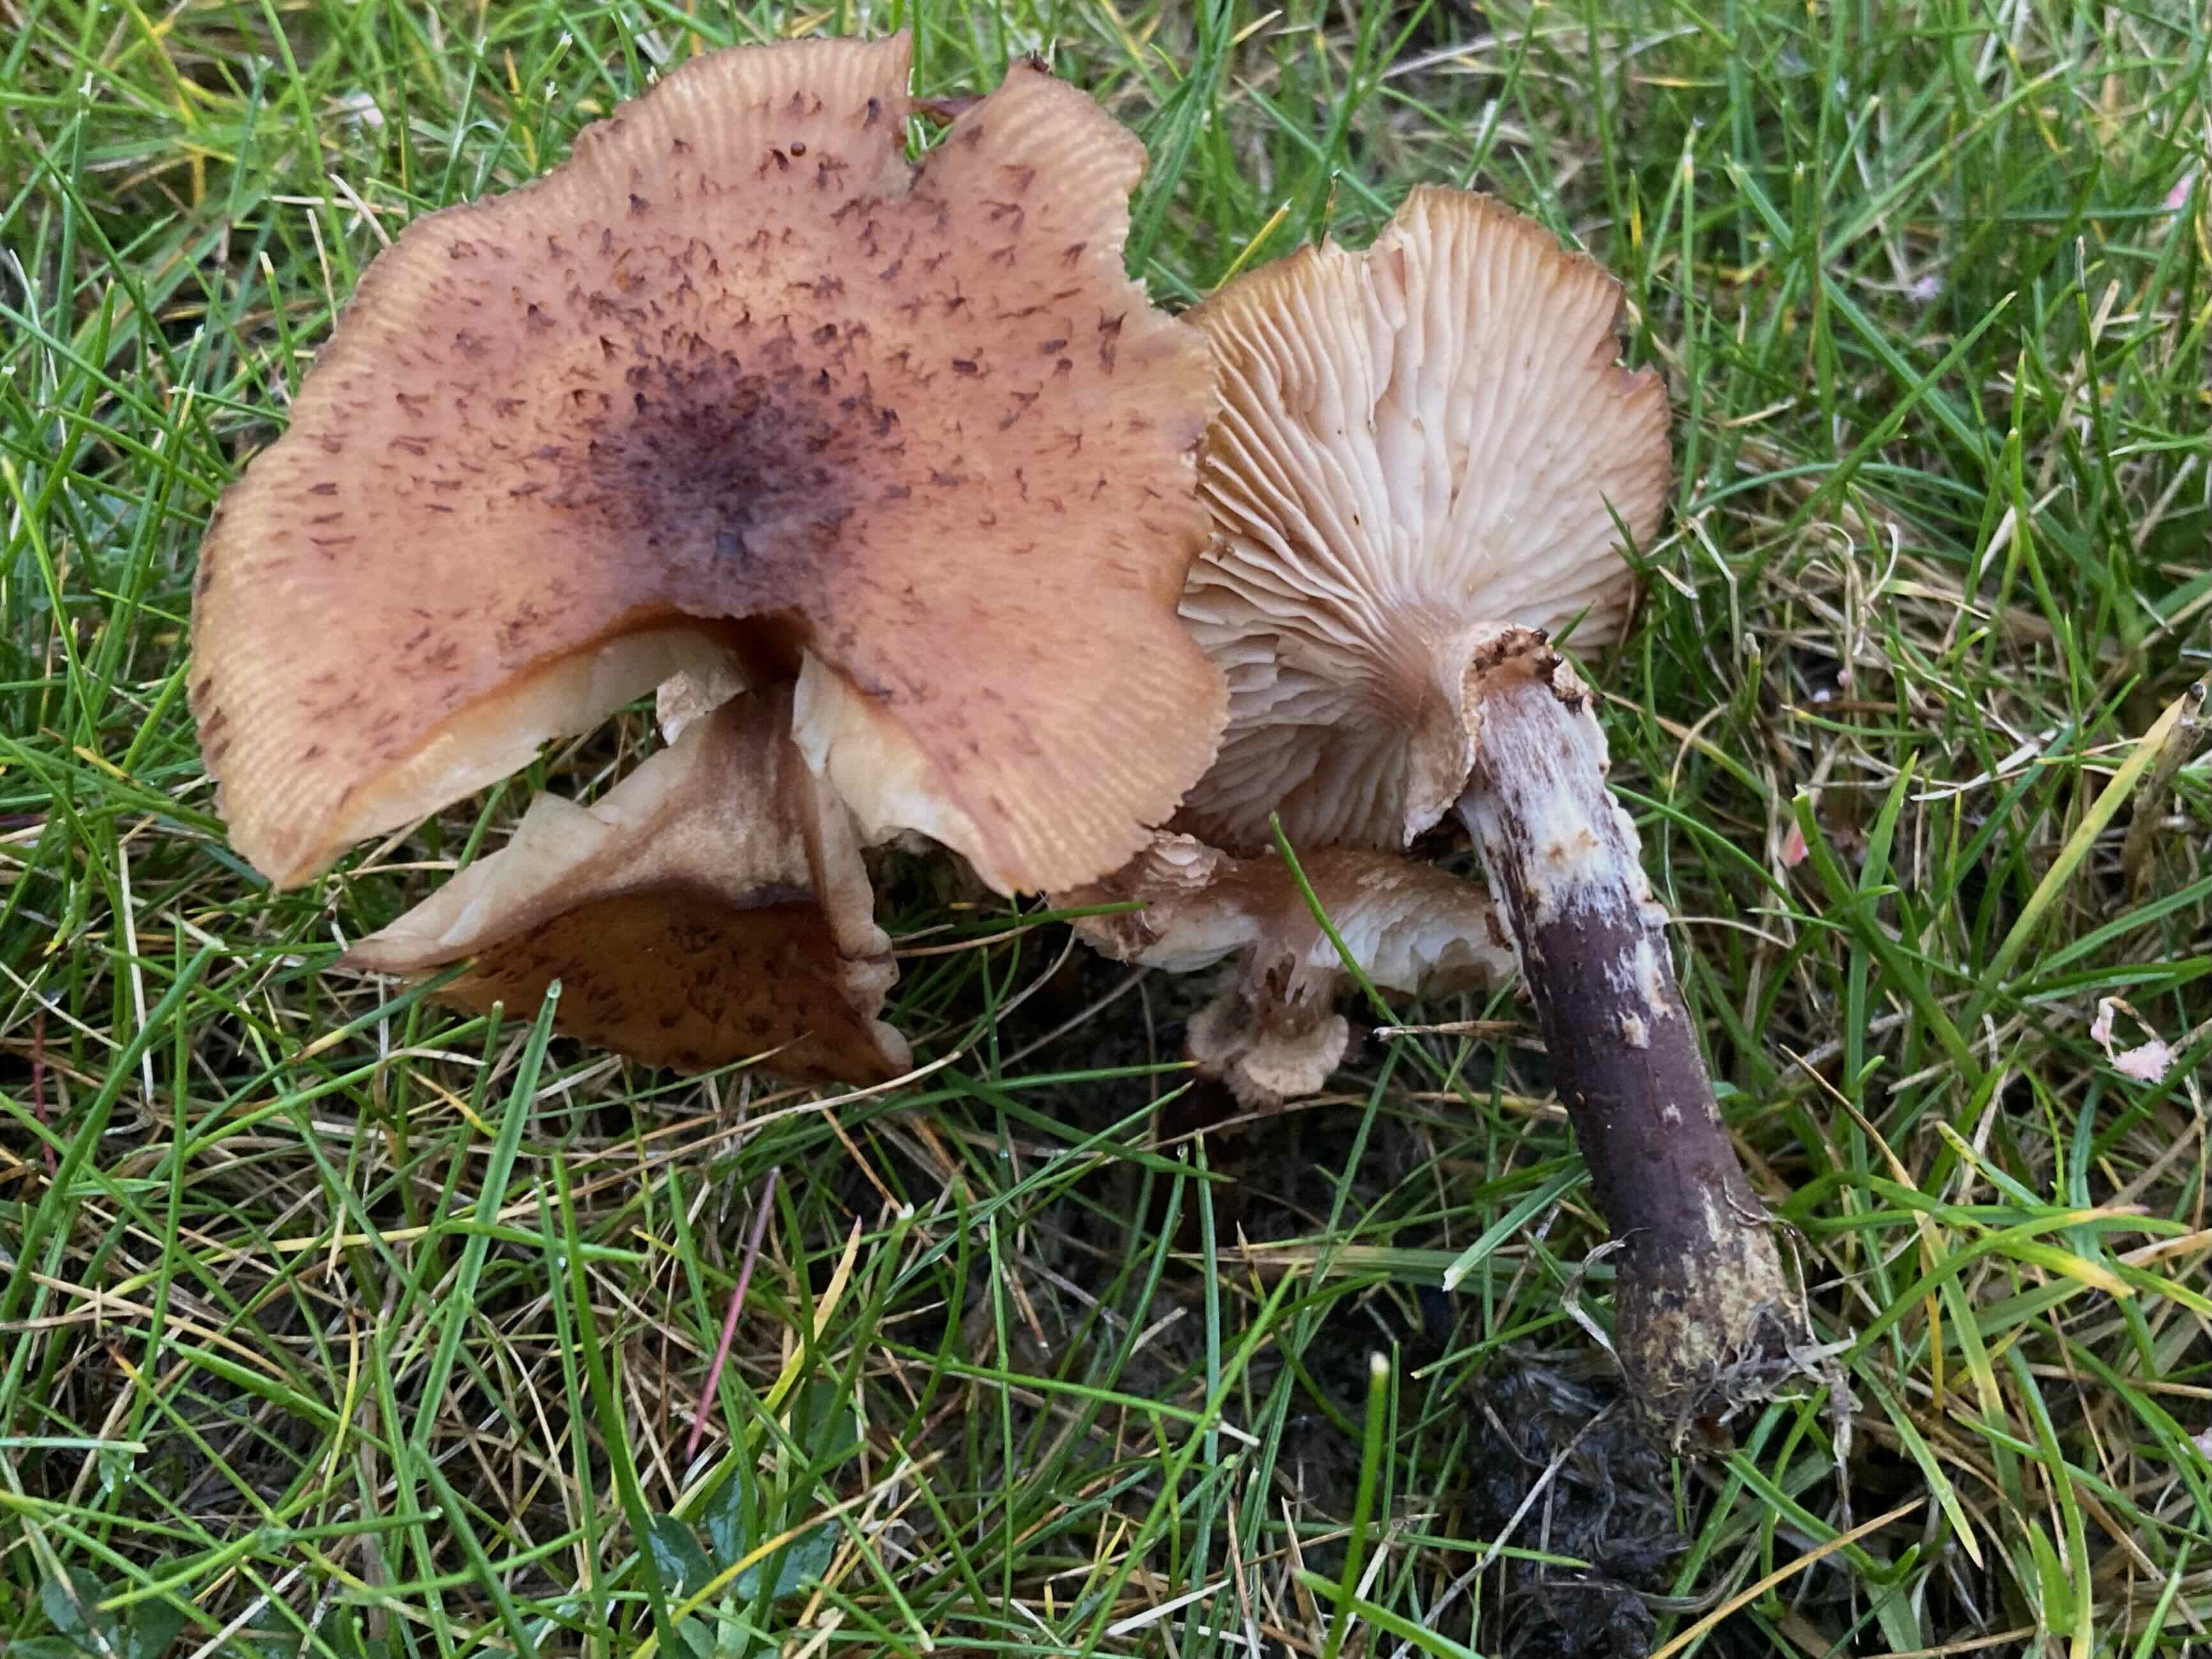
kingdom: Fungi
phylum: Basidiomycota
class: Agaricomycetes
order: Agaricales
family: Physalacriaceae
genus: Armillaria
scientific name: Armillaria ostoyae
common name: mørk honningsvamp
